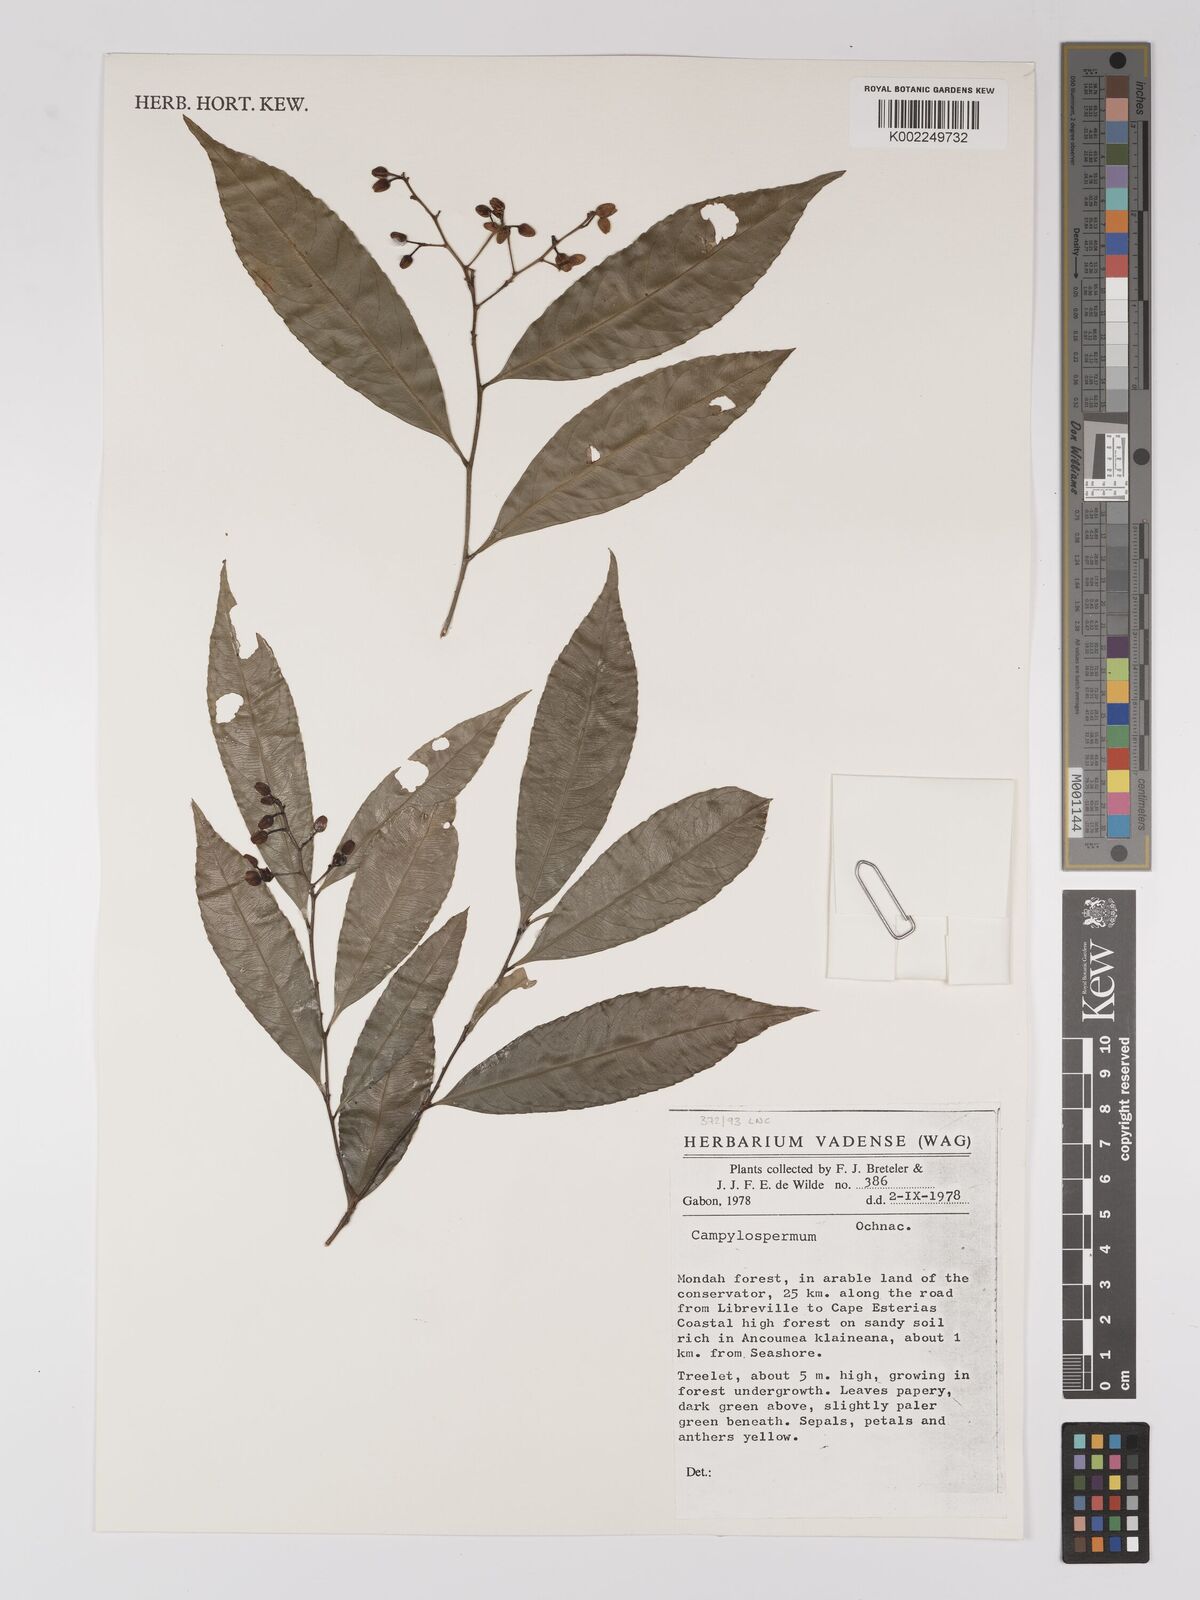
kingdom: Plantae
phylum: Tracheophyta
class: Magnoliopsida
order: Malpighiales
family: Ochnaceae
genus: Campylospermum
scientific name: Campylospermum
